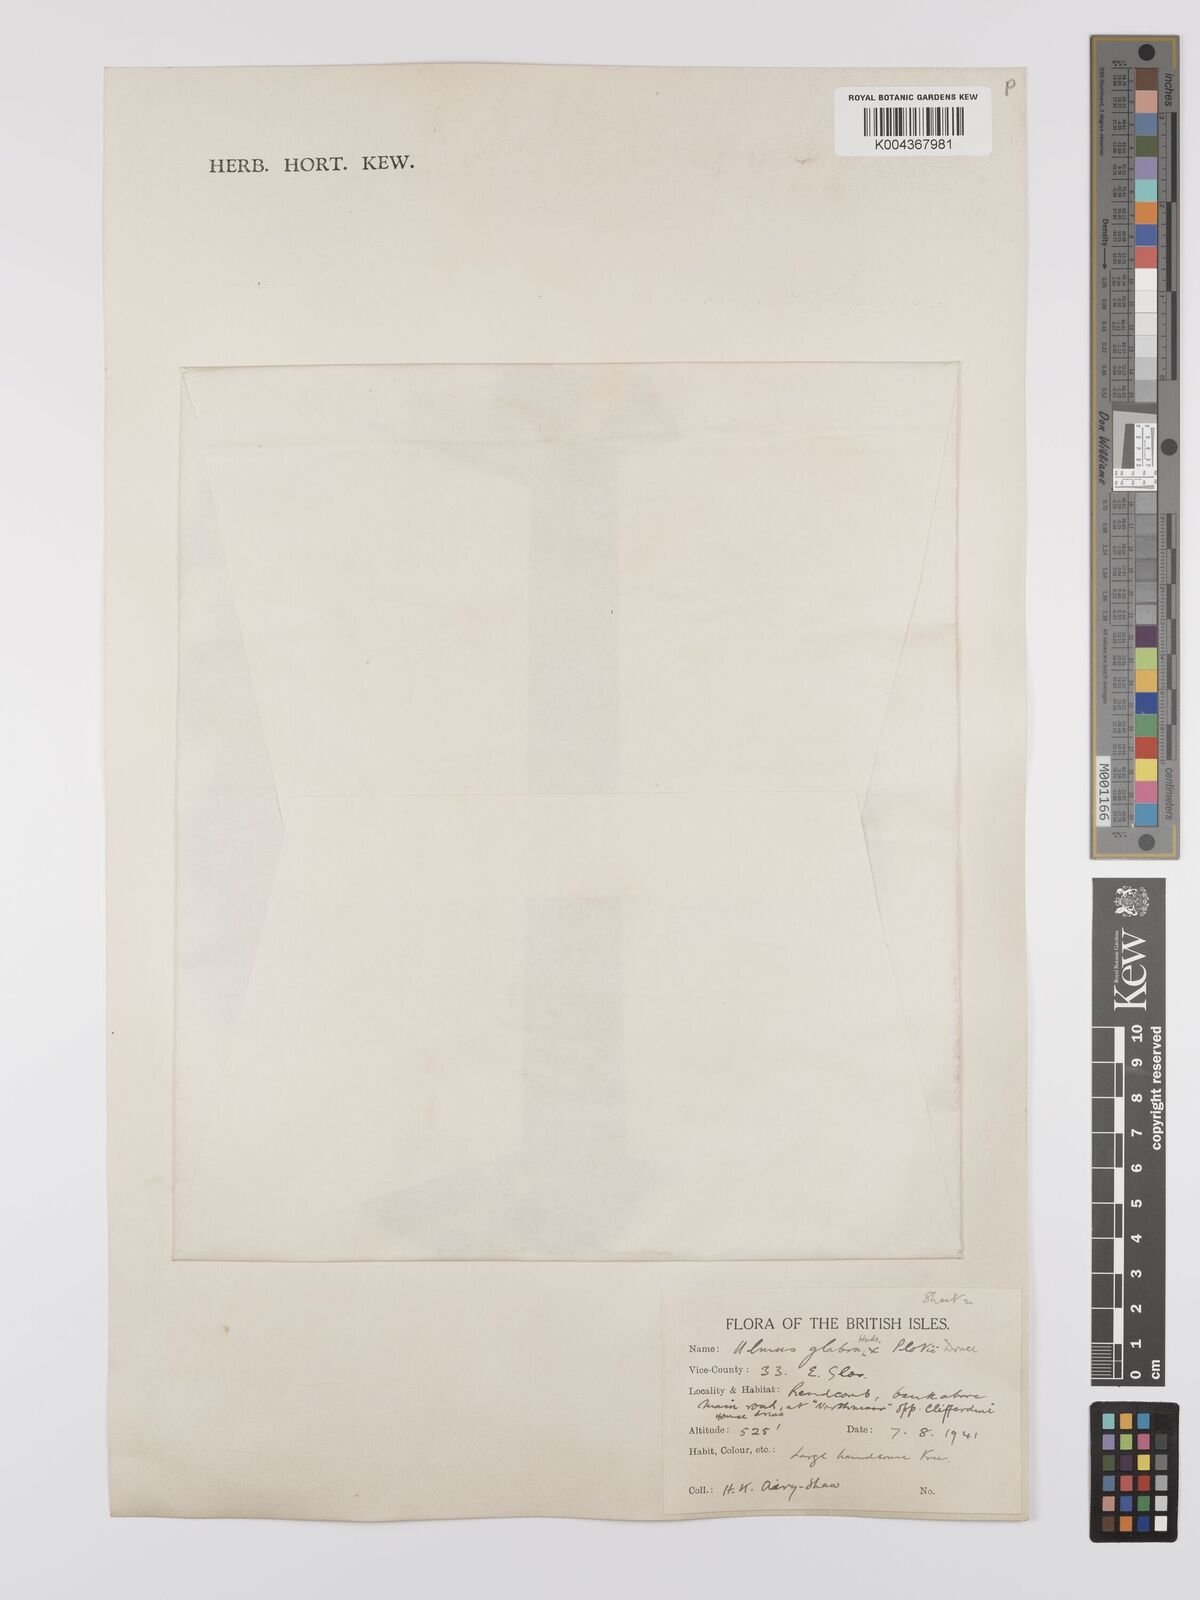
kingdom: Plantae
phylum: Tracheophyta
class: Magnoliopsida
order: Rosales
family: Ulmaceae
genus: Ulmus
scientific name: Ulmus
